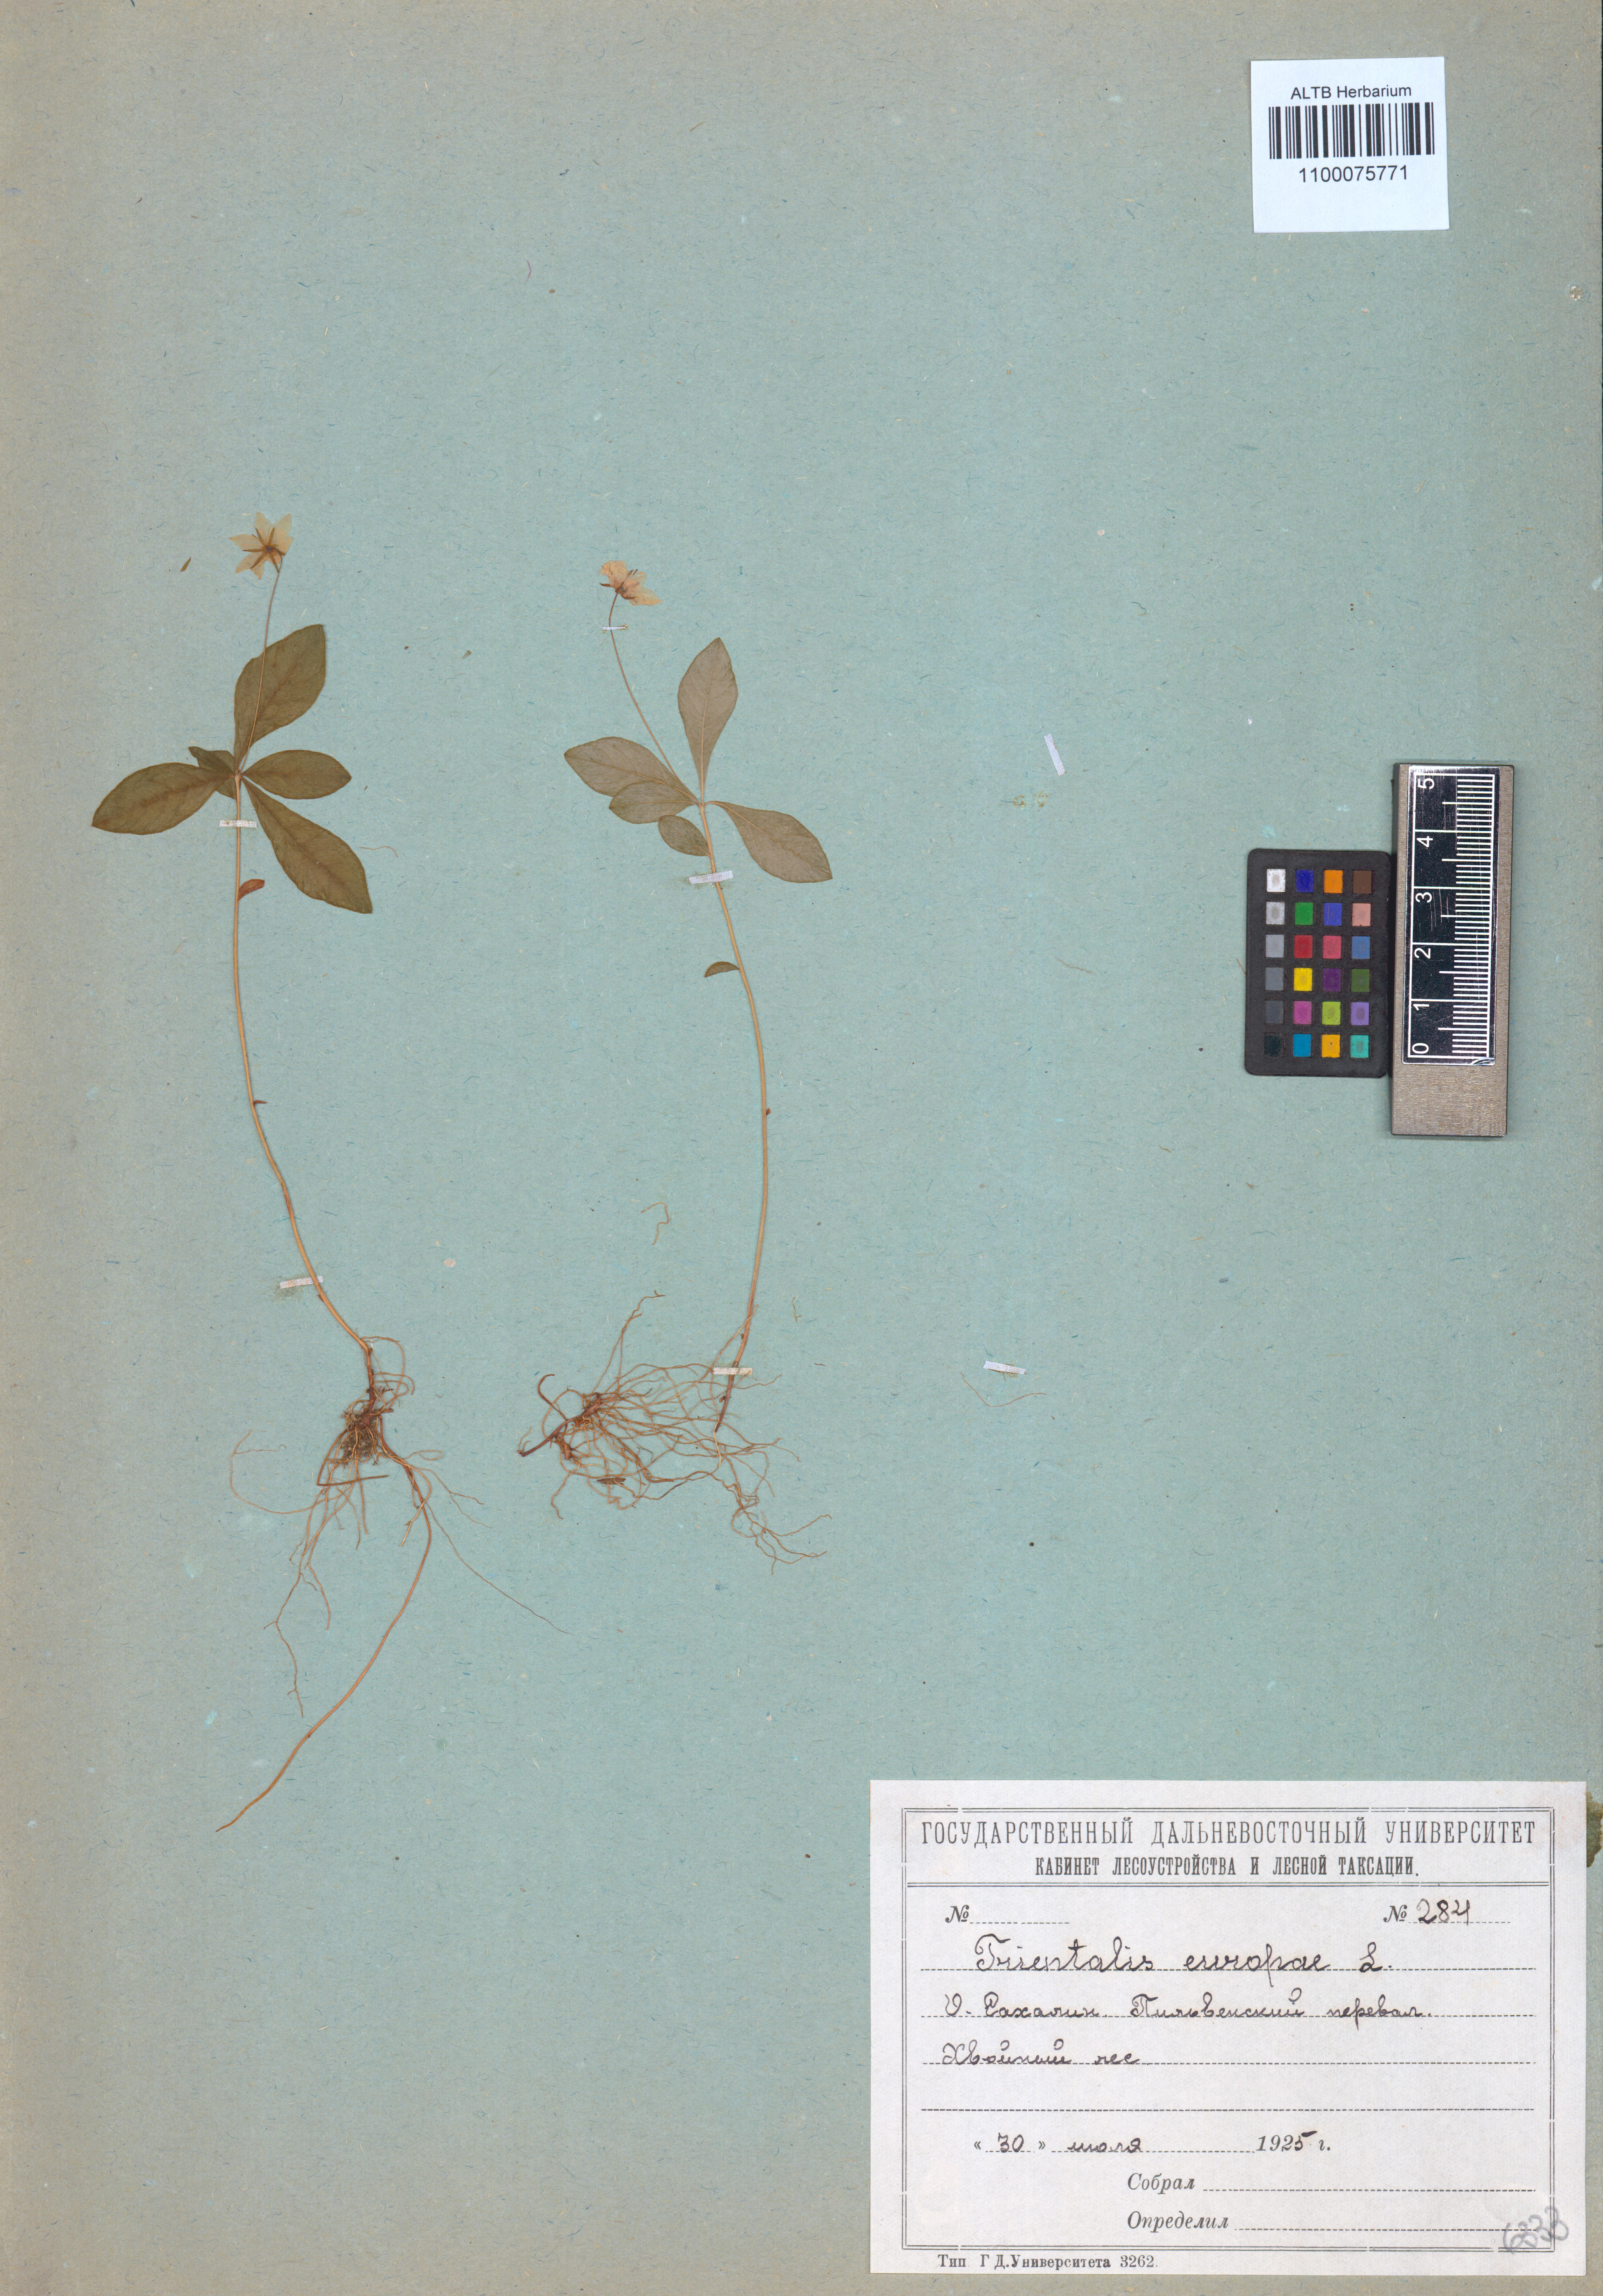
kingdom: Plantae
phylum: Tracheophyta
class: Magnoliopsida
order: Ericales
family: Primulaceae
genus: Lysimachia
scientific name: Lysimachia europaea
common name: Arctic starflower
